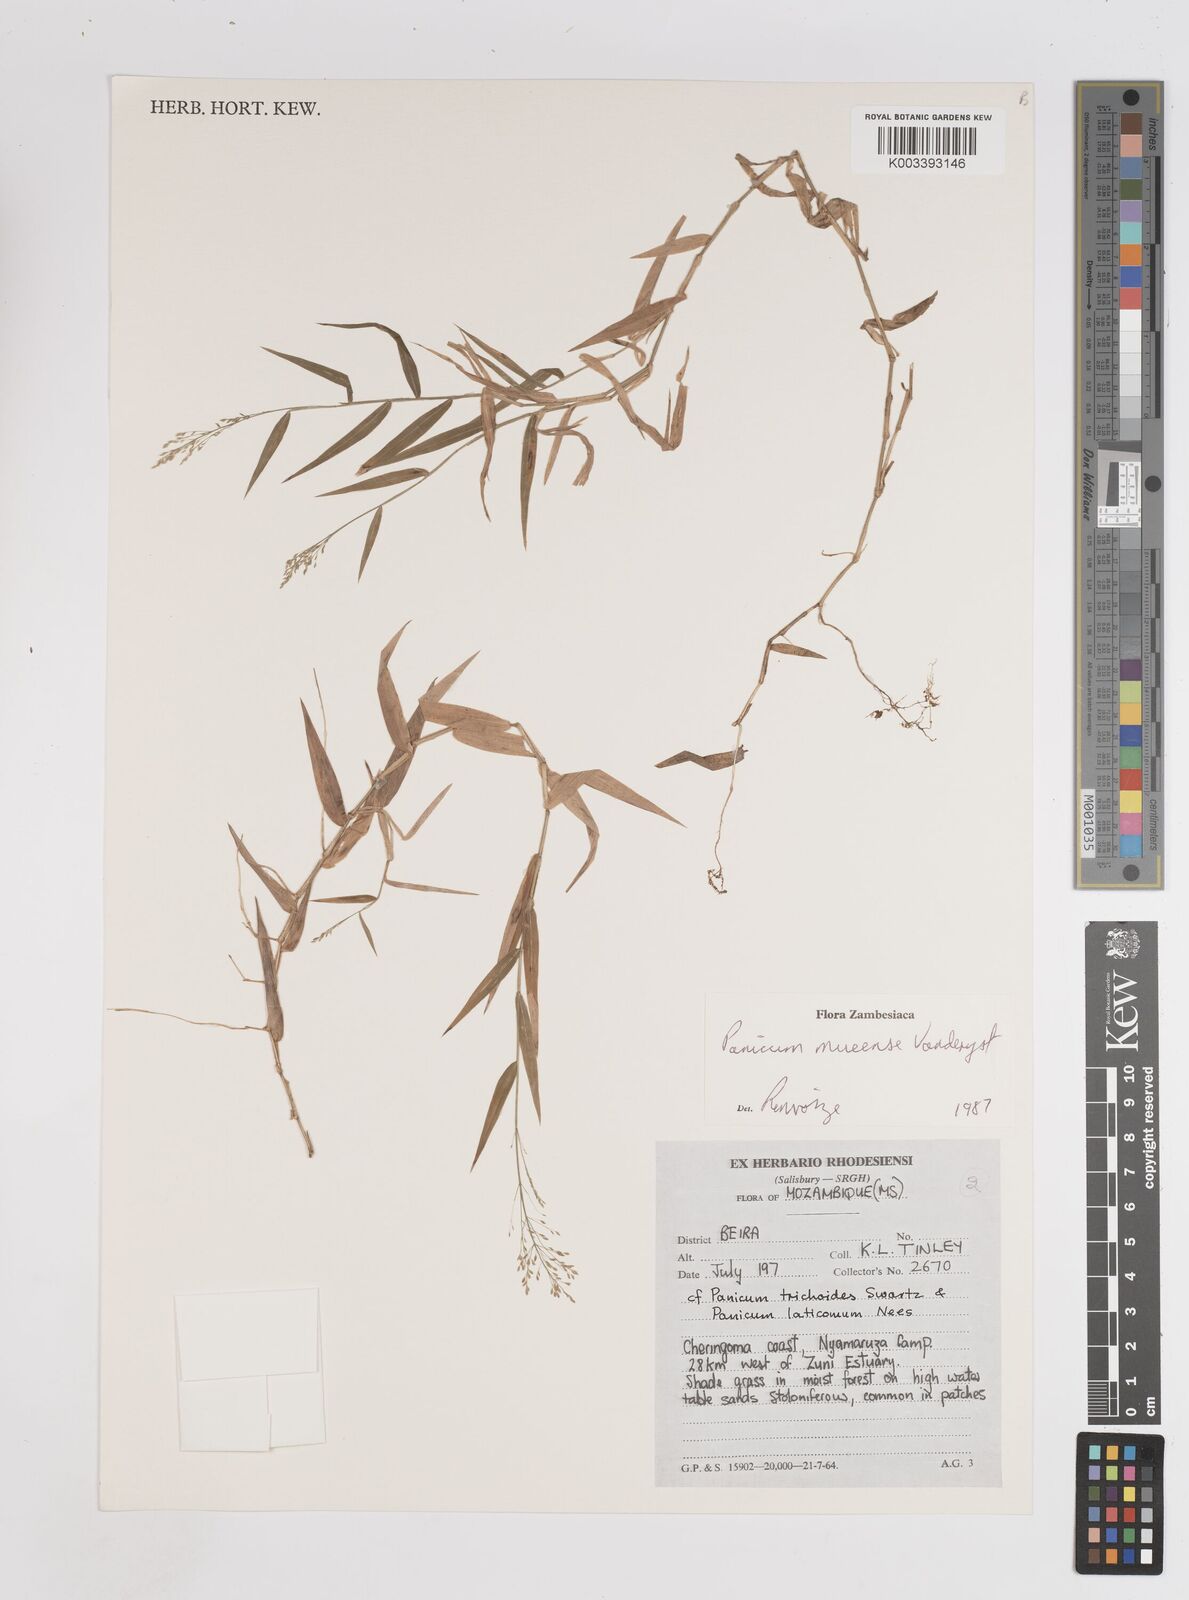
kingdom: Plantae
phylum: Tracheophyta
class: Liliopsida
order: Poales
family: Poaceae
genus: Trichanthecium
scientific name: Trichanthecium mueense
